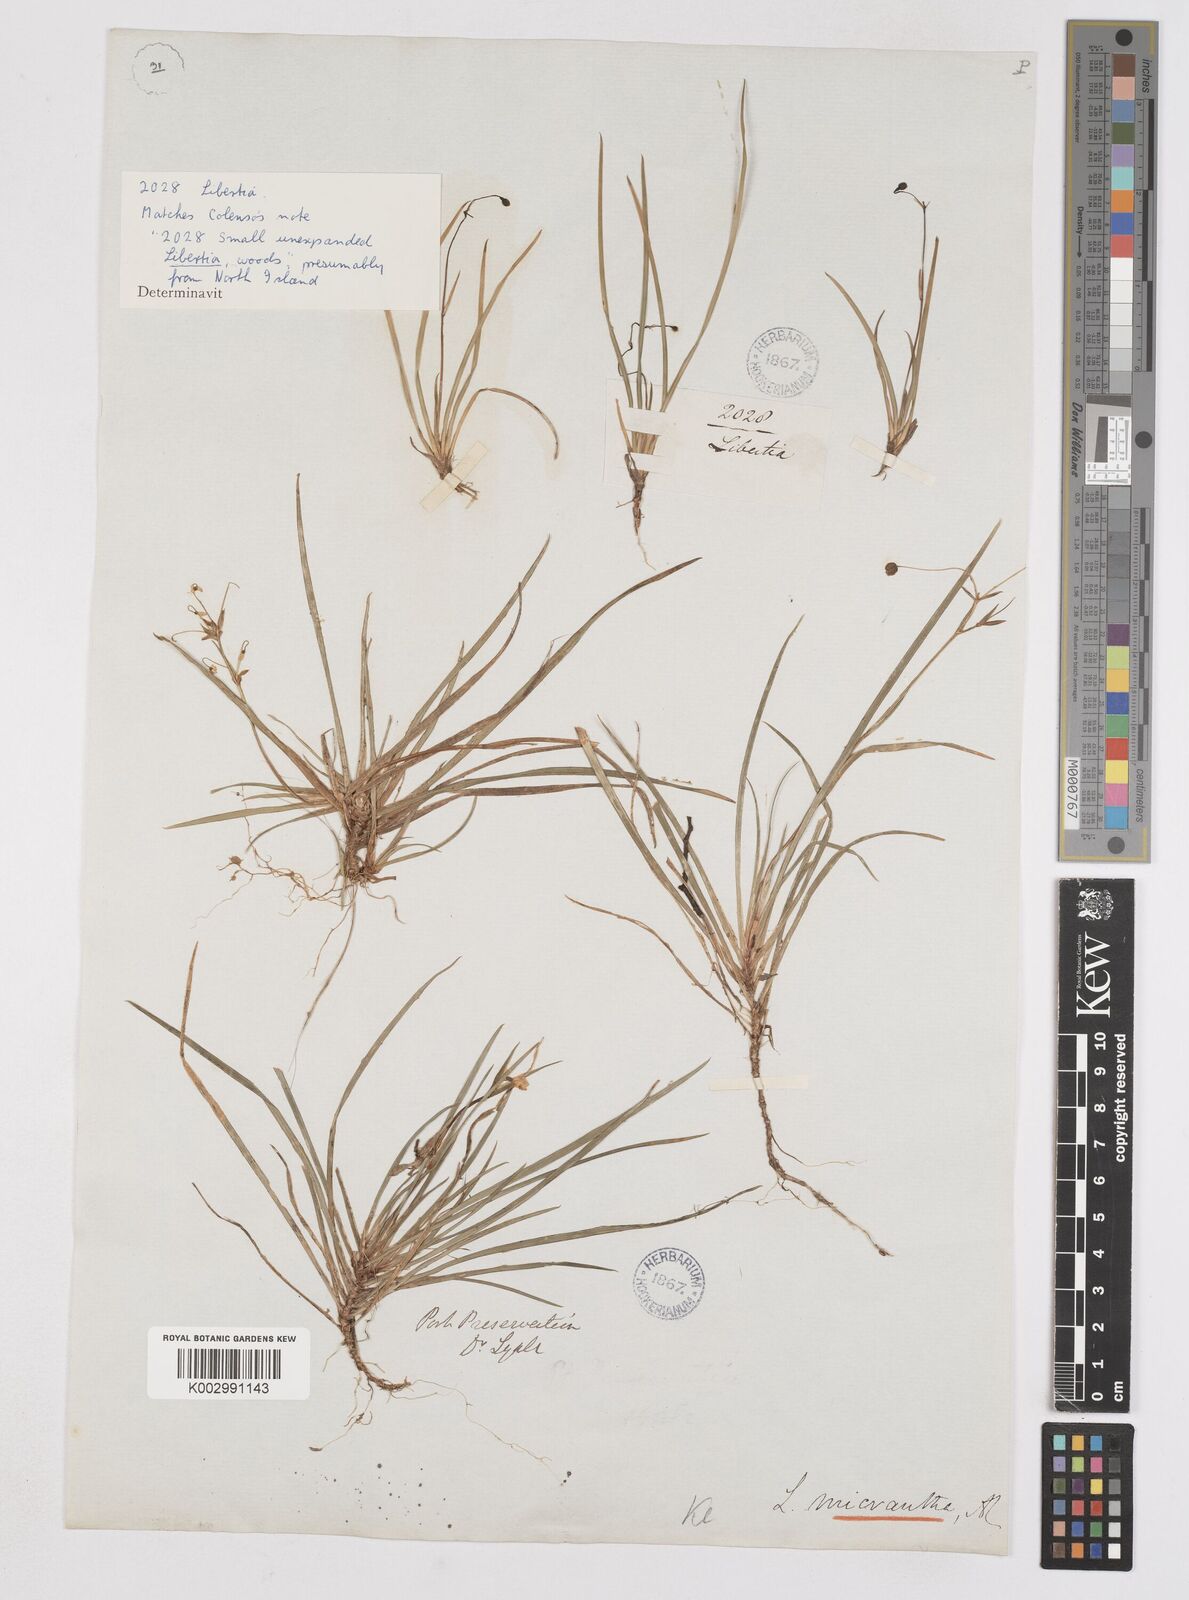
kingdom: Plantae
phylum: Tracheophyta
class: Liliopsida
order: Asparagales
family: Iridaceae
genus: Libertia
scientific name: Libertia pulchella
